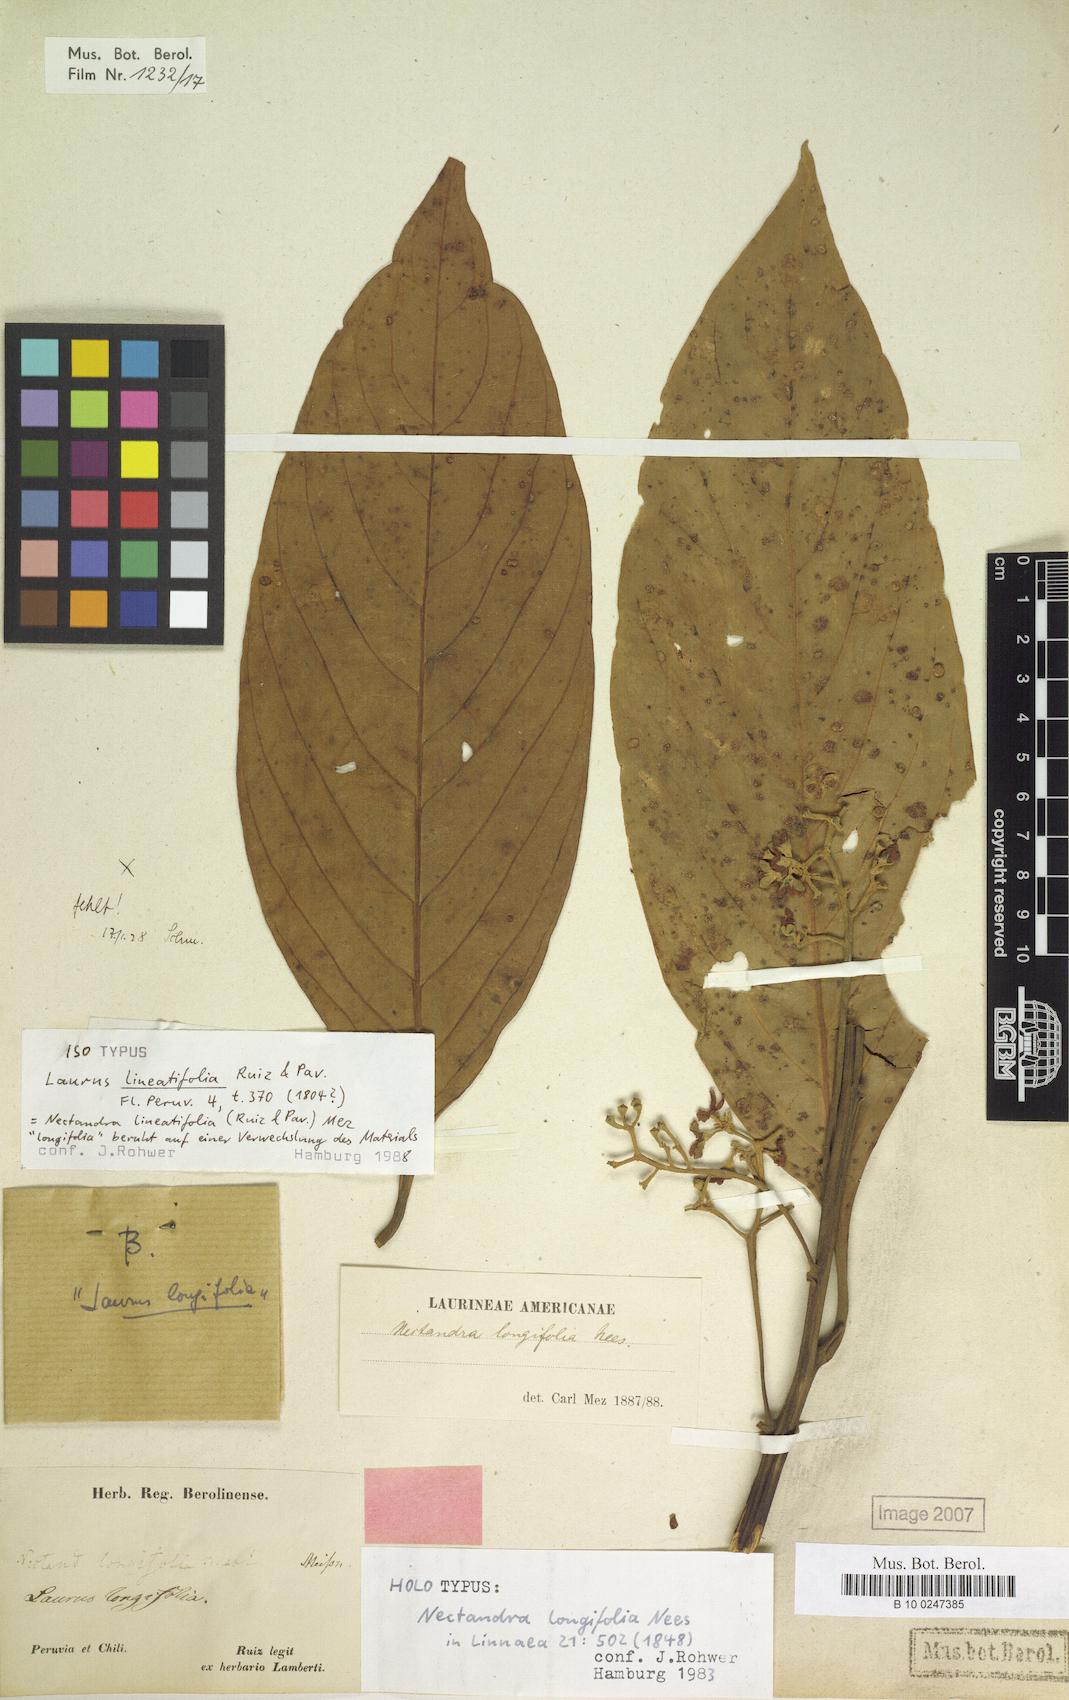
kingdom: Plantae
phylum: Tracheophyta
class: Magnoliopsida
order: Laurales
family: Lauraceae
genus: Nectandra
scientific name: Nectandra lineatifolia
